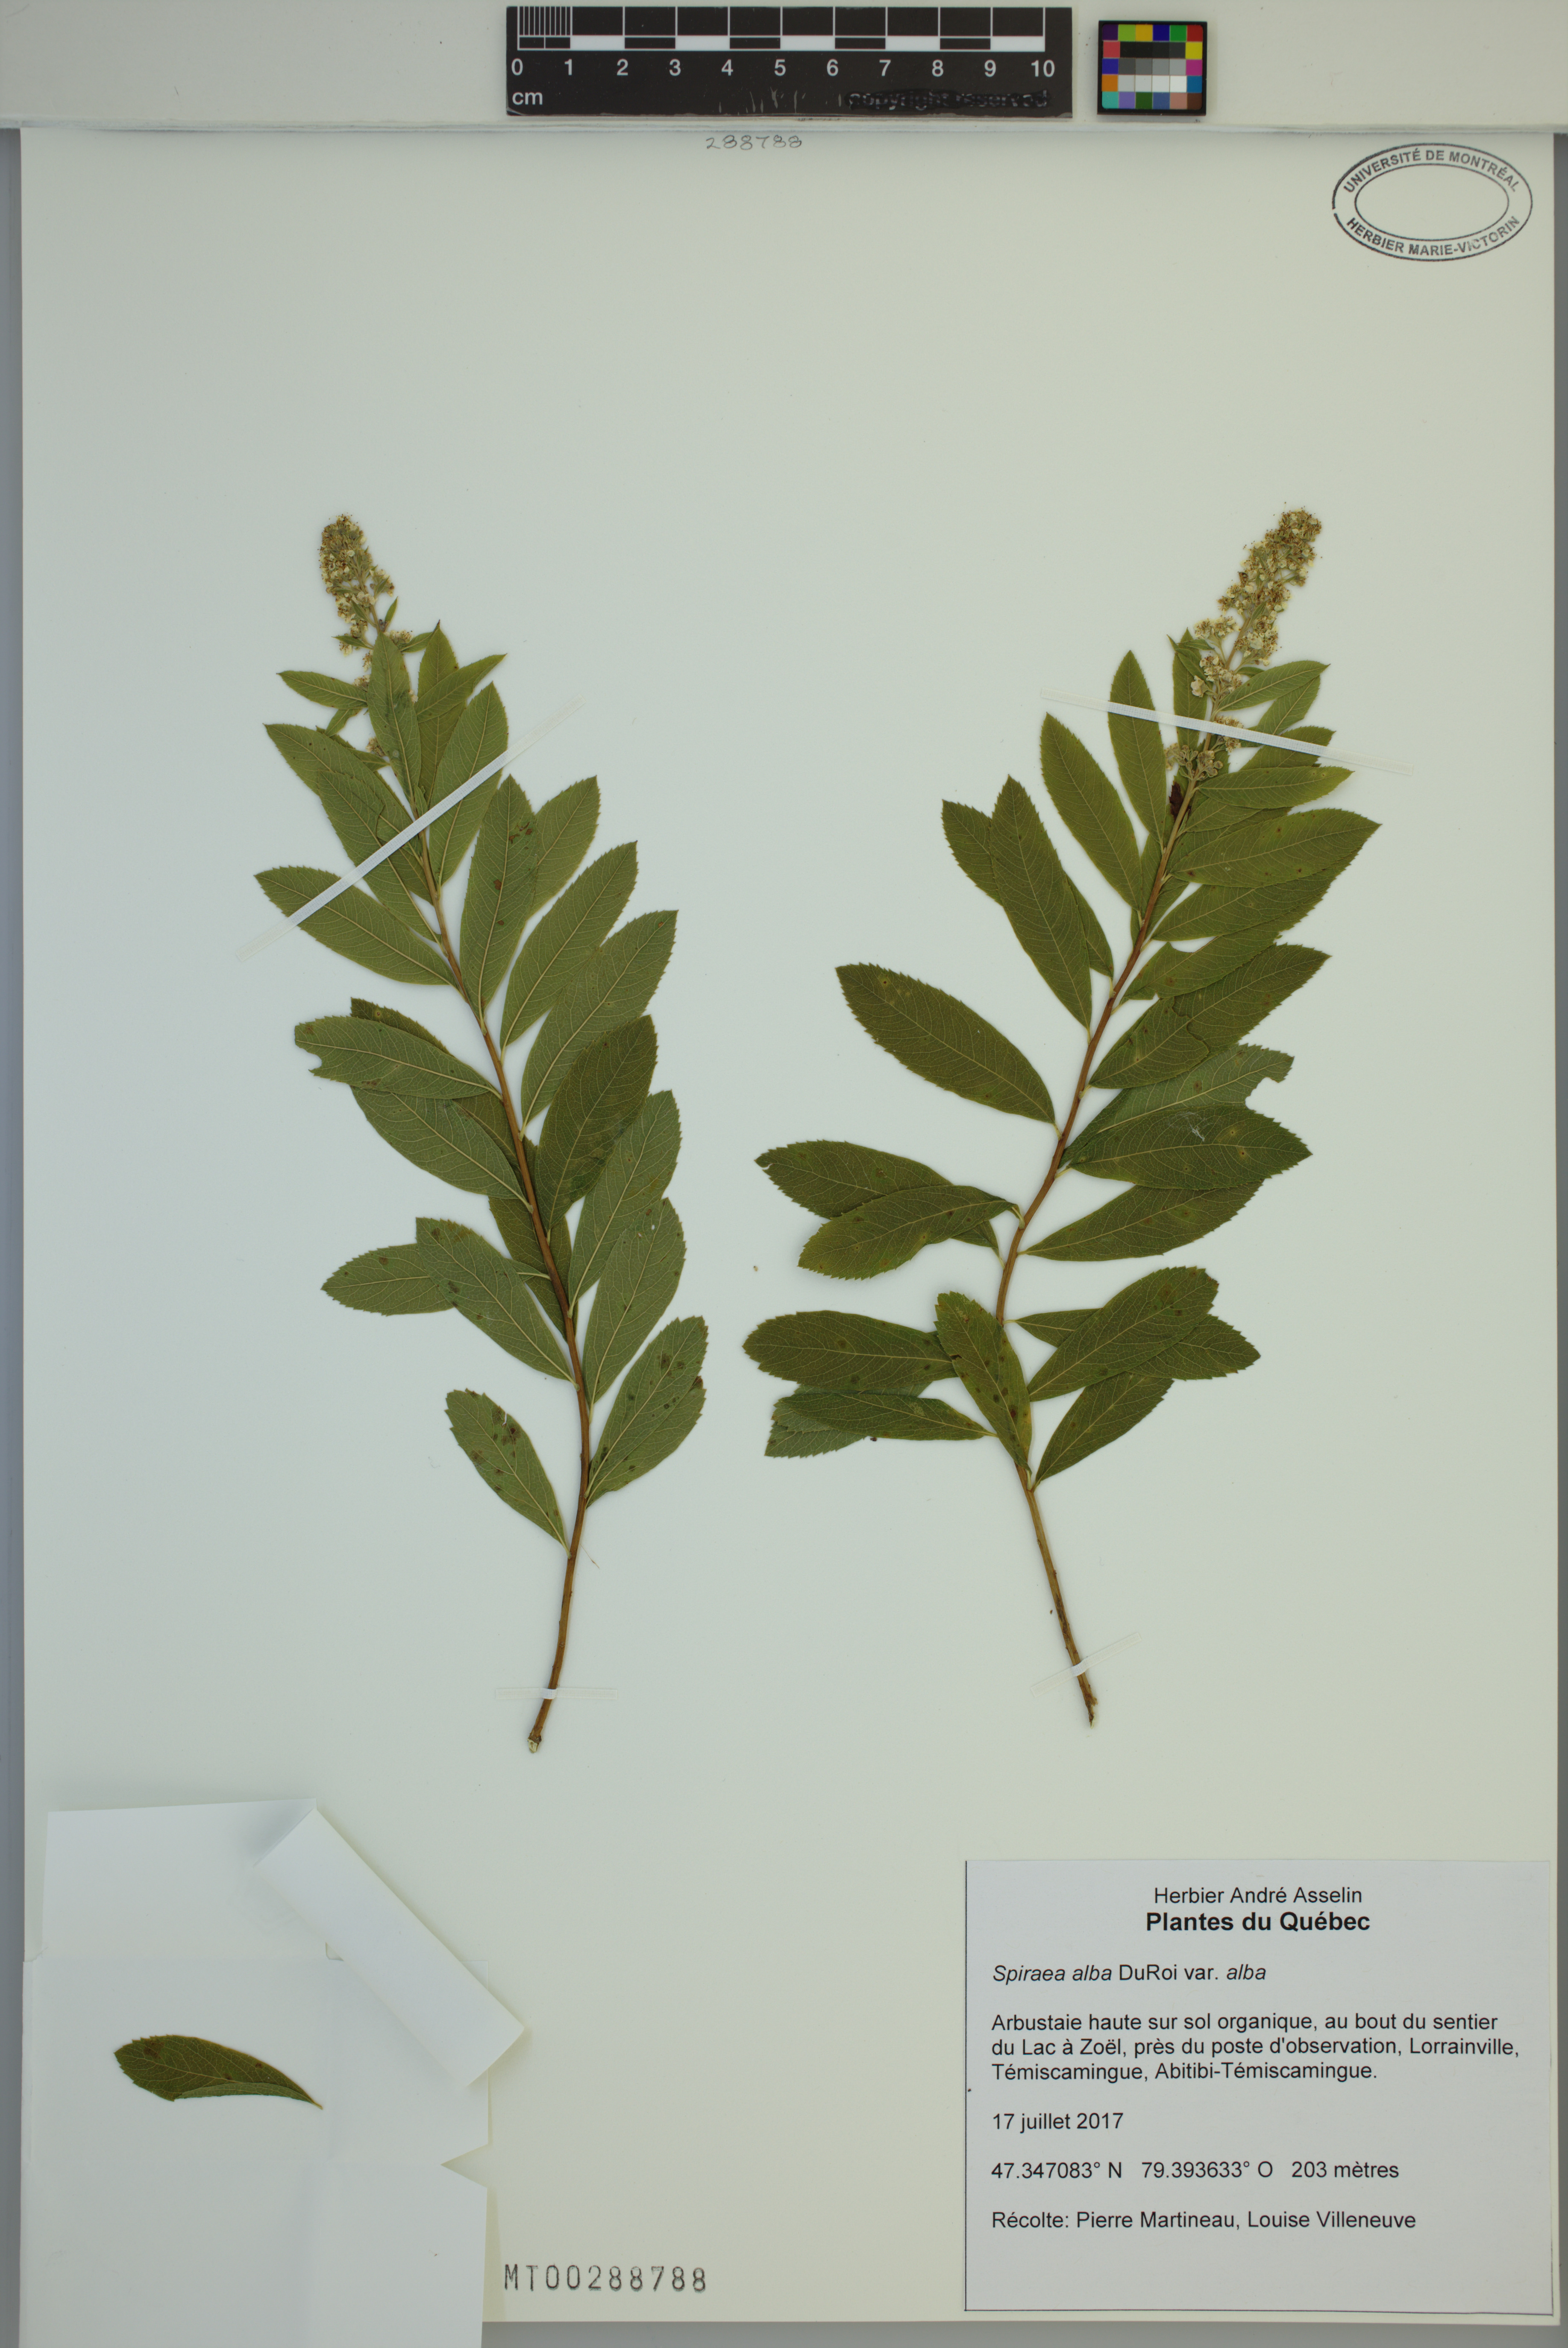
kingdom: Plantae
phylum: Tracheophyta
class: Magnoliopsida
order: Rosales
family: Rosaceae
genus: Spiraea
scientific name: Spiraea alba
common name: Pale bridewort
